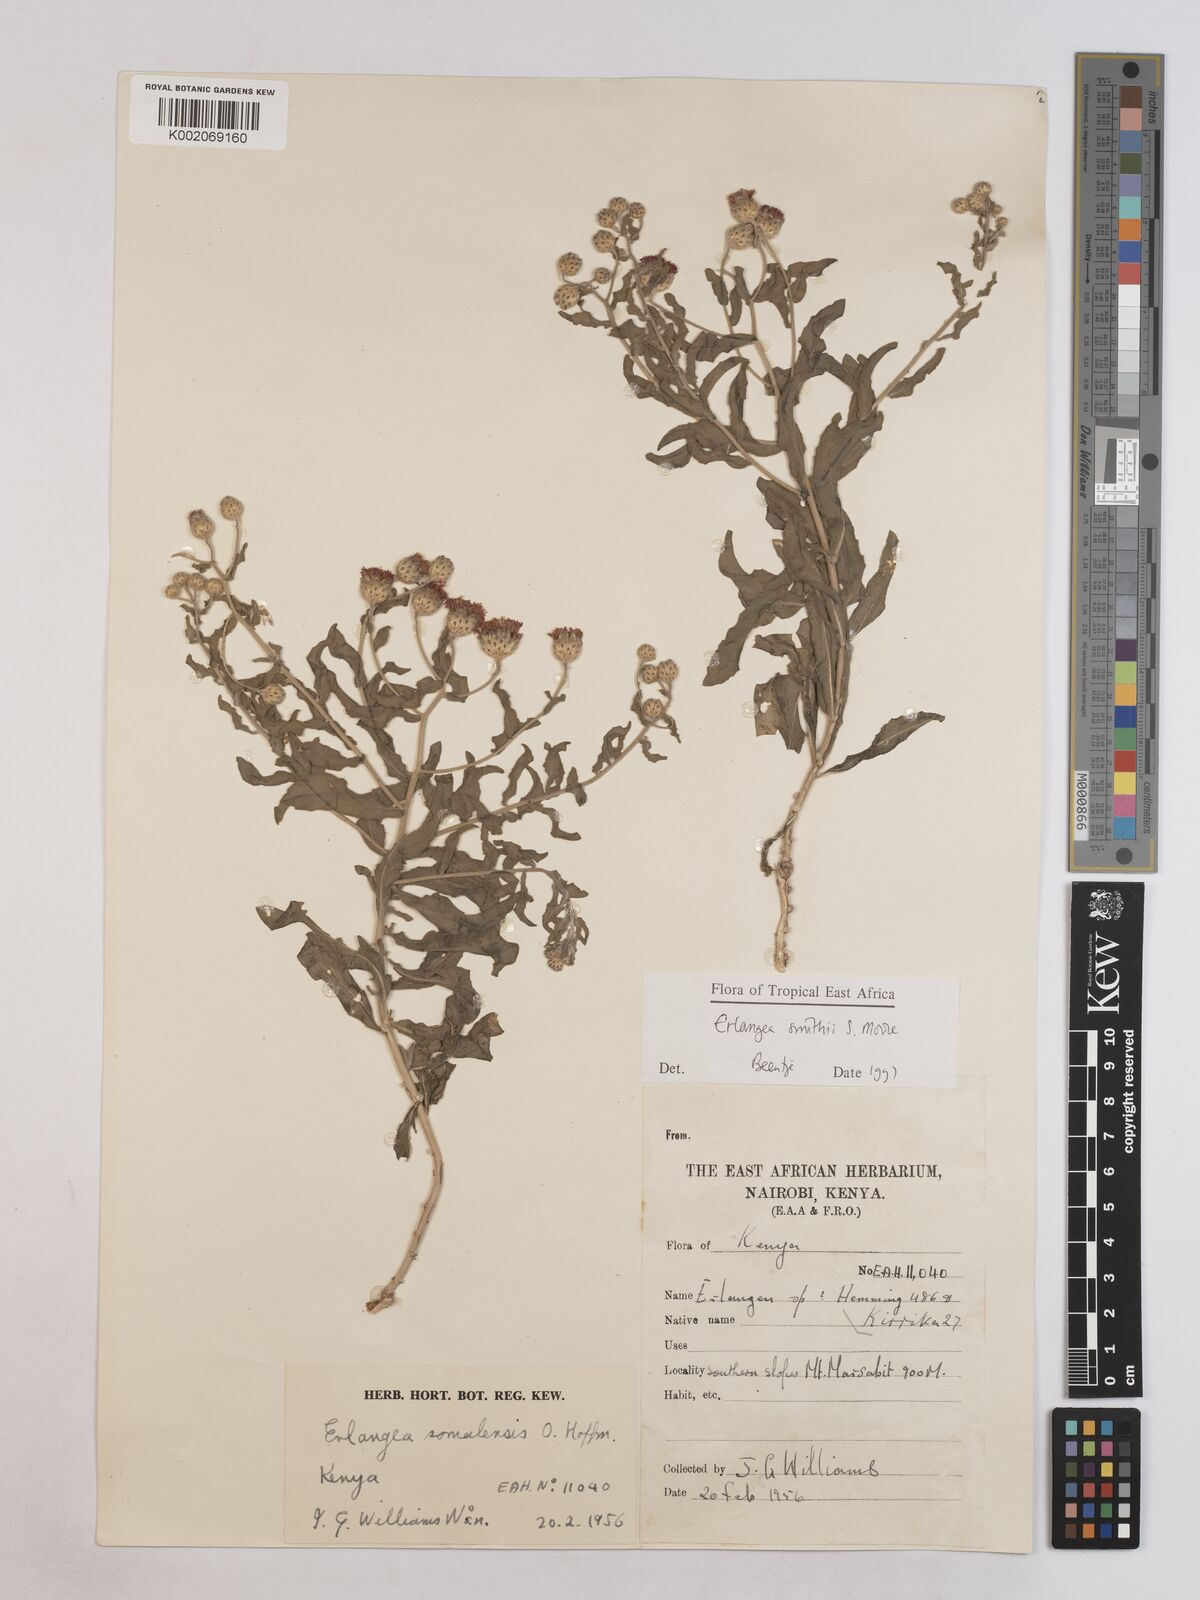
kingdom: Plantae
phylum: Tracheophyta
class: Magnoliopsida
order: Asterales
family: Asteraceae
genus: Erlangea
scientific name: Erlangea smithii
